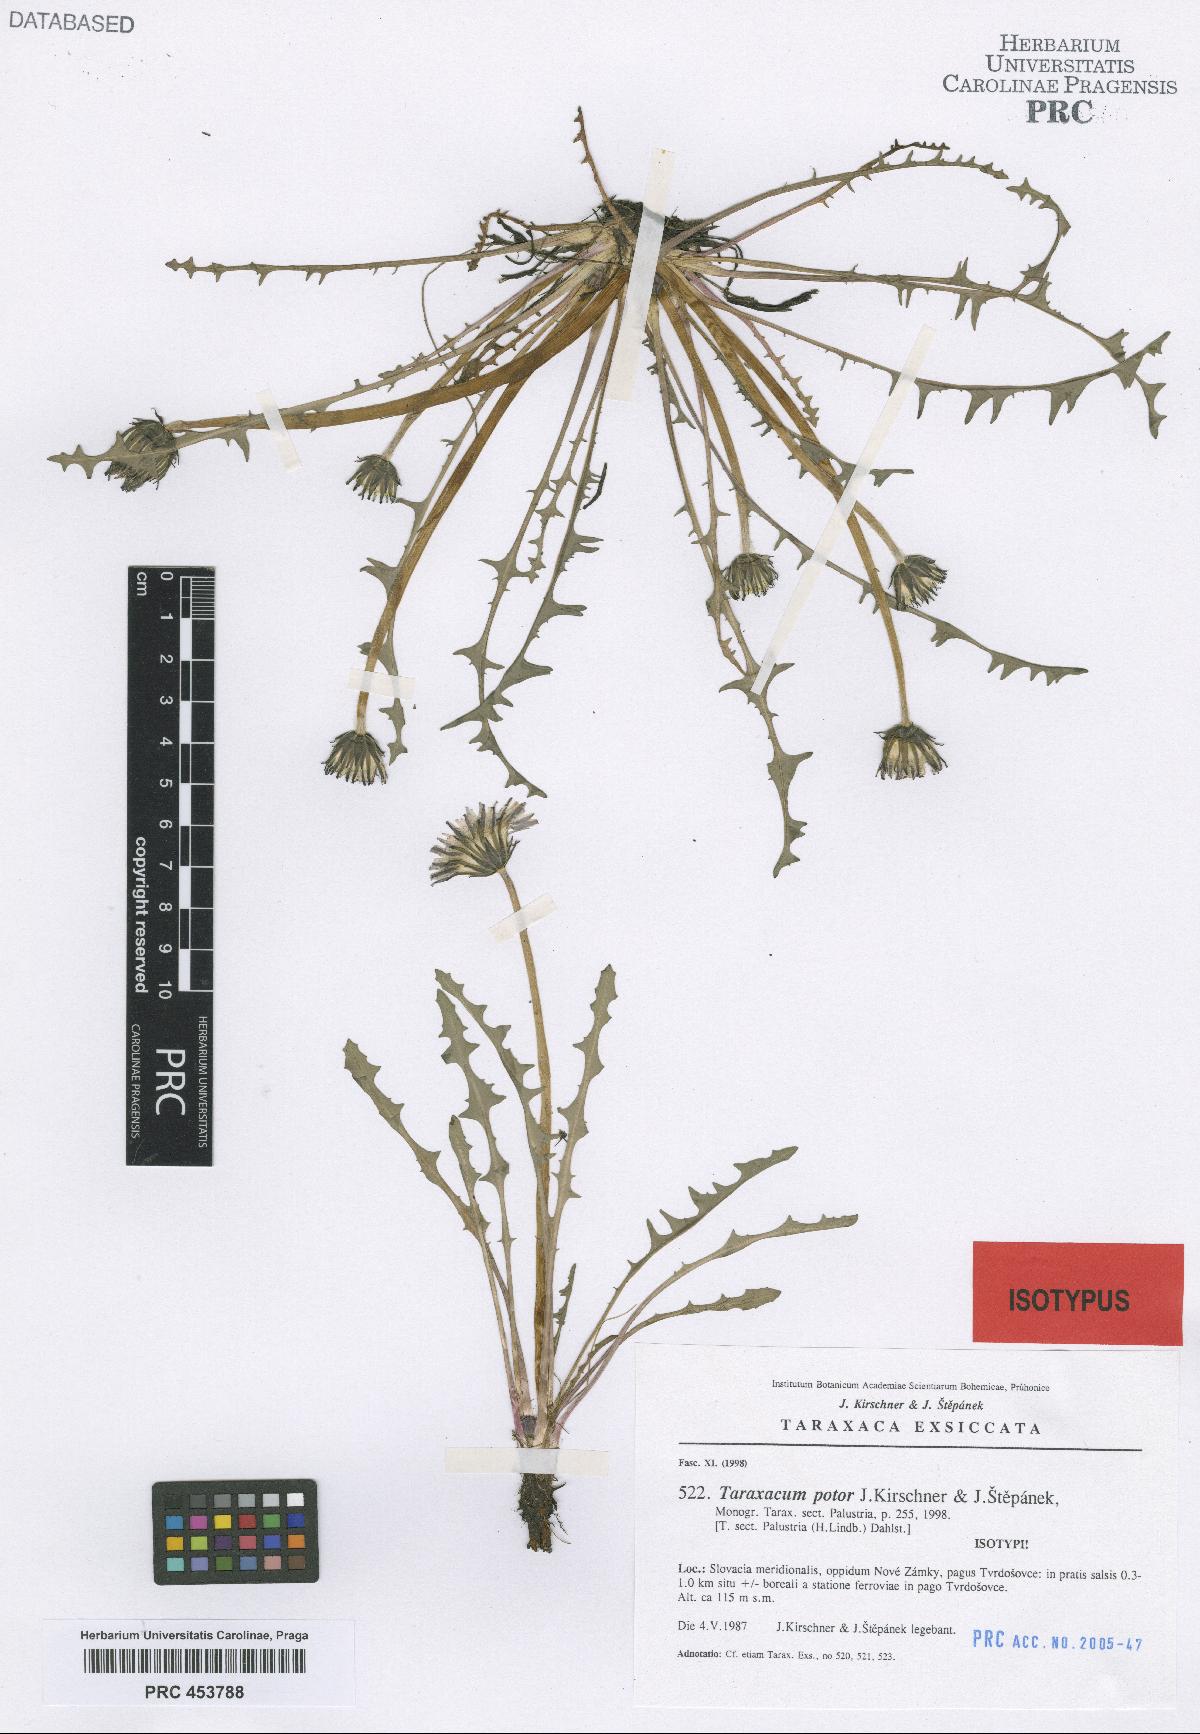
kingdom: Plantae
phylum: Tracheophyta
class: Magnoliopsida
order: Asterales
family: Asteraceae
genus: Taraxacum
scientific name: Taraxacum potor
